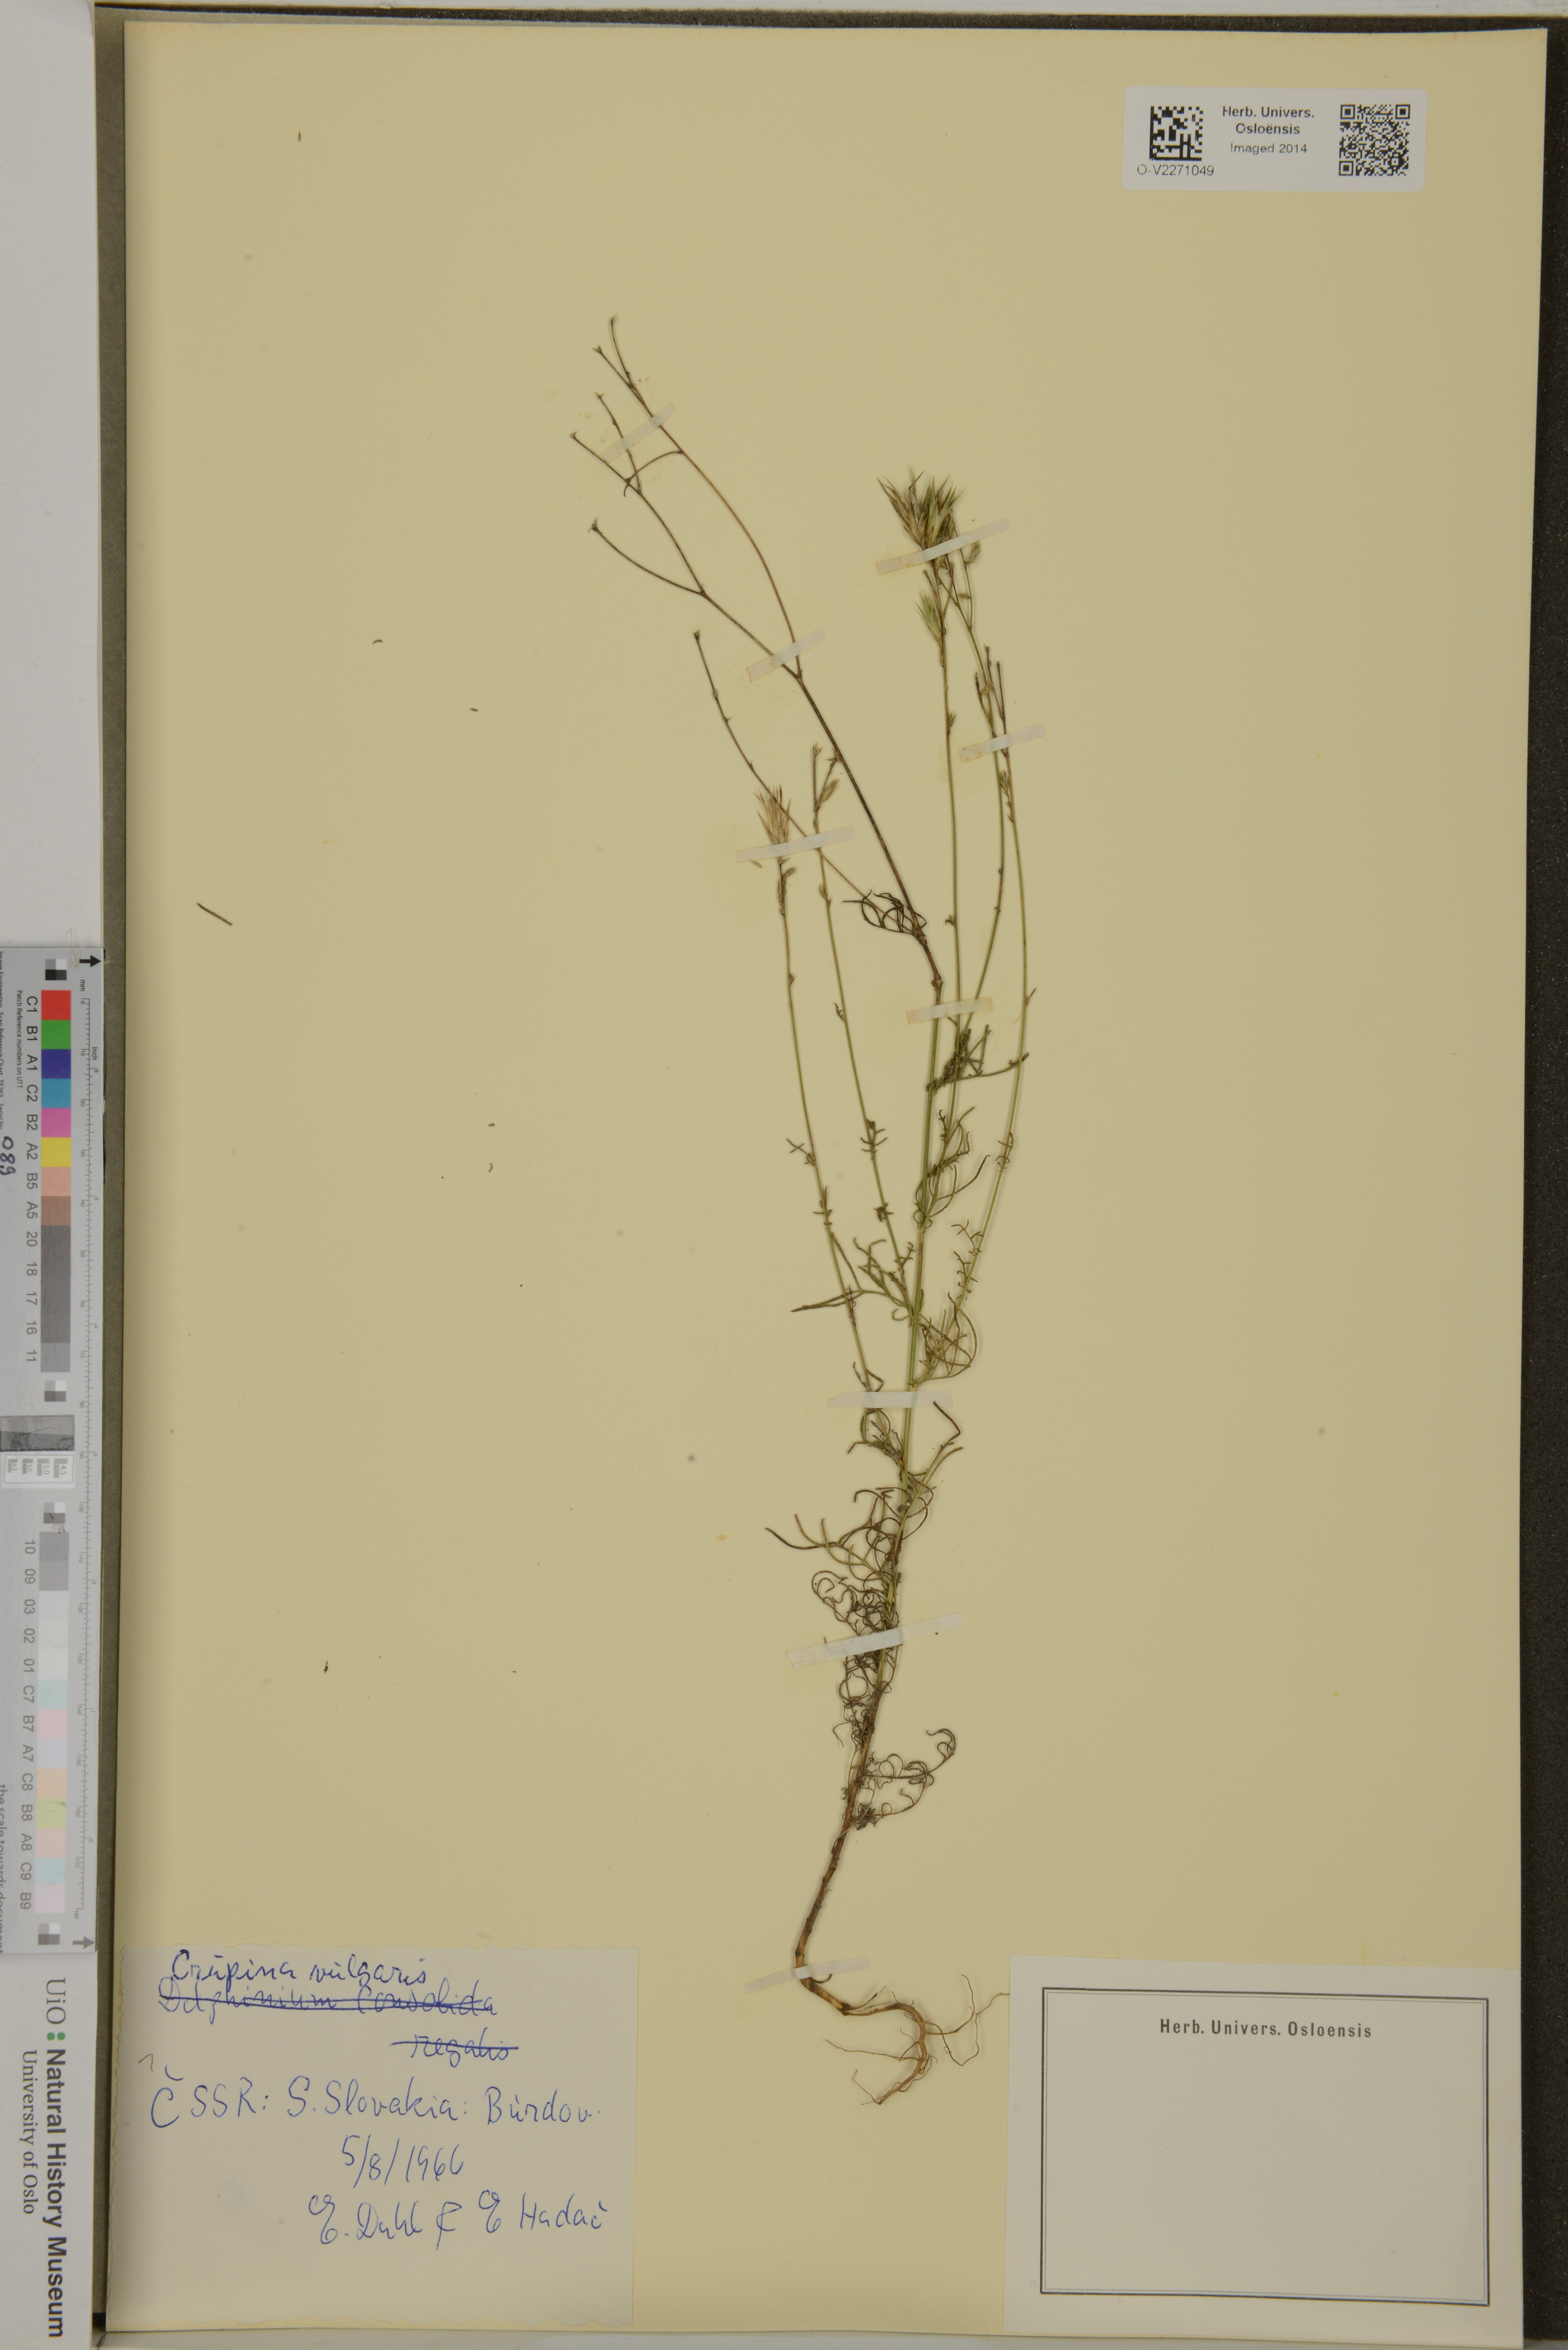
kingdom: Plantae
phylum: Tracheophyta
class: Magnoliopsida
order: Asterales
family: Asteraceae
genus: Crupina
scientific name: Crupina vulgaris
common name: Common crupina
